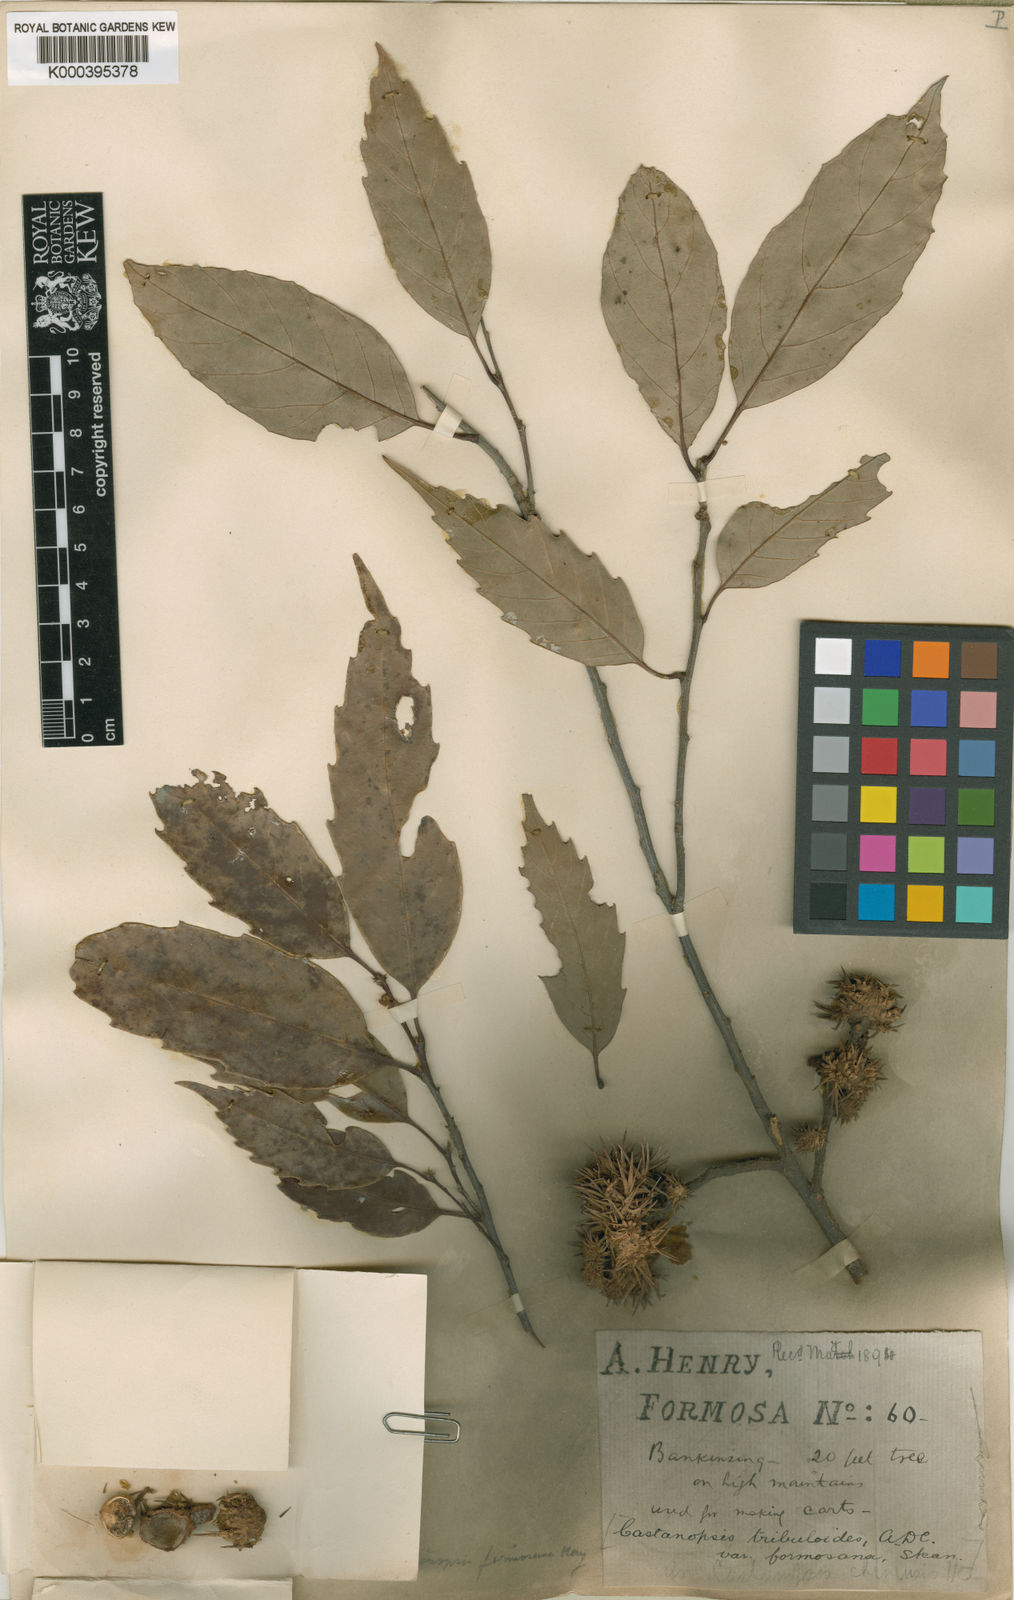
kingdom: Plantae
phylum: Tracheophyta
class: Magnoliopsida
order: Fagales
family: Fagaceae
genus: Castanopsis
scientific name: Castanopsis formosana
